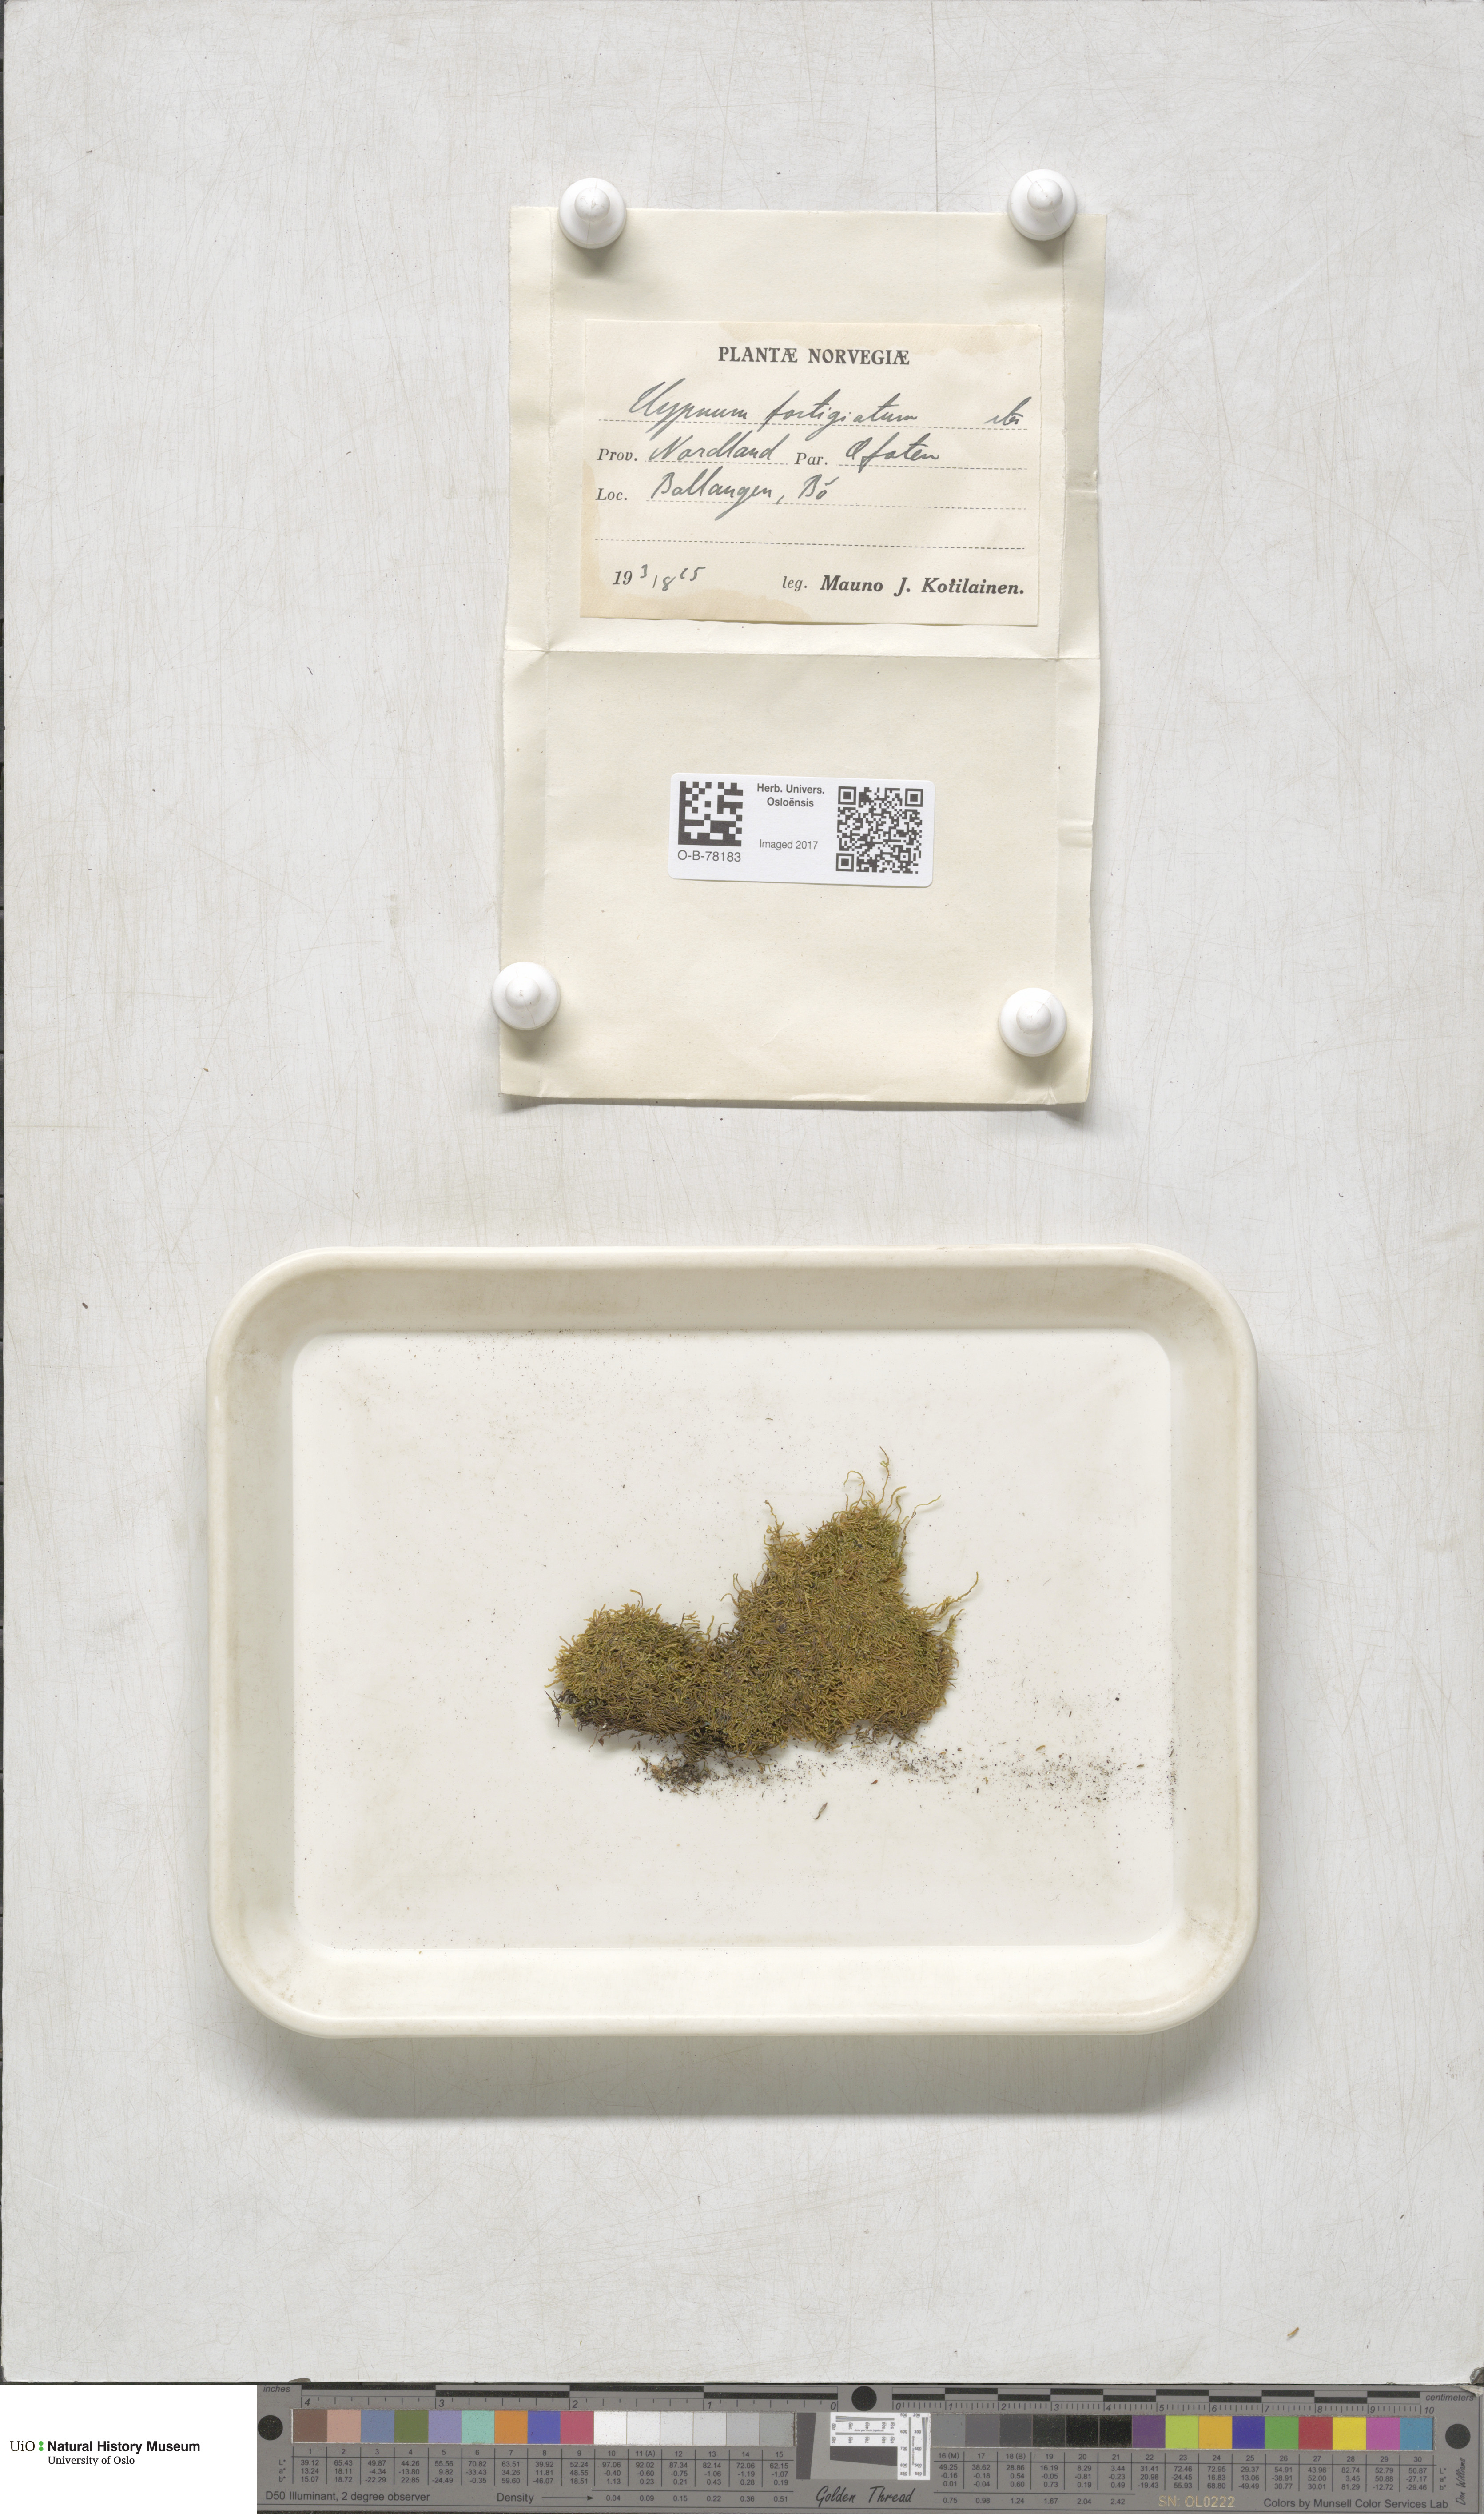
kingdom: Plantae
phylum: Bryophyta
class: Bryopsida
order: Hypnales
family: Amblystegiaceae
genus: Drepanium
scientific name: Drepanium fastigiatum
